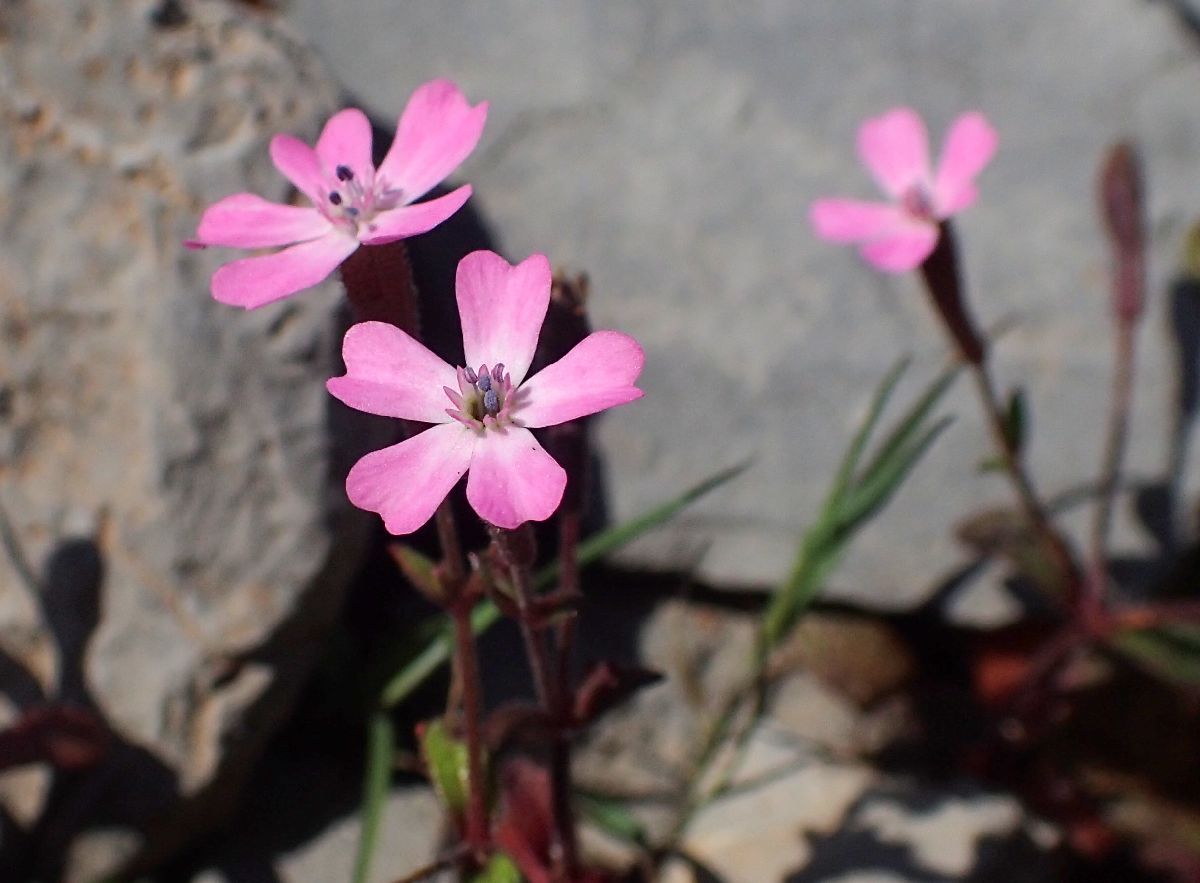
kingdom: Plantae
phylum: Tracheophyta
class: Magnoliopsida
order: Caryophyllales
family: Caryophyllaceae
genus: Silene
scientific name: Silene integripetala
